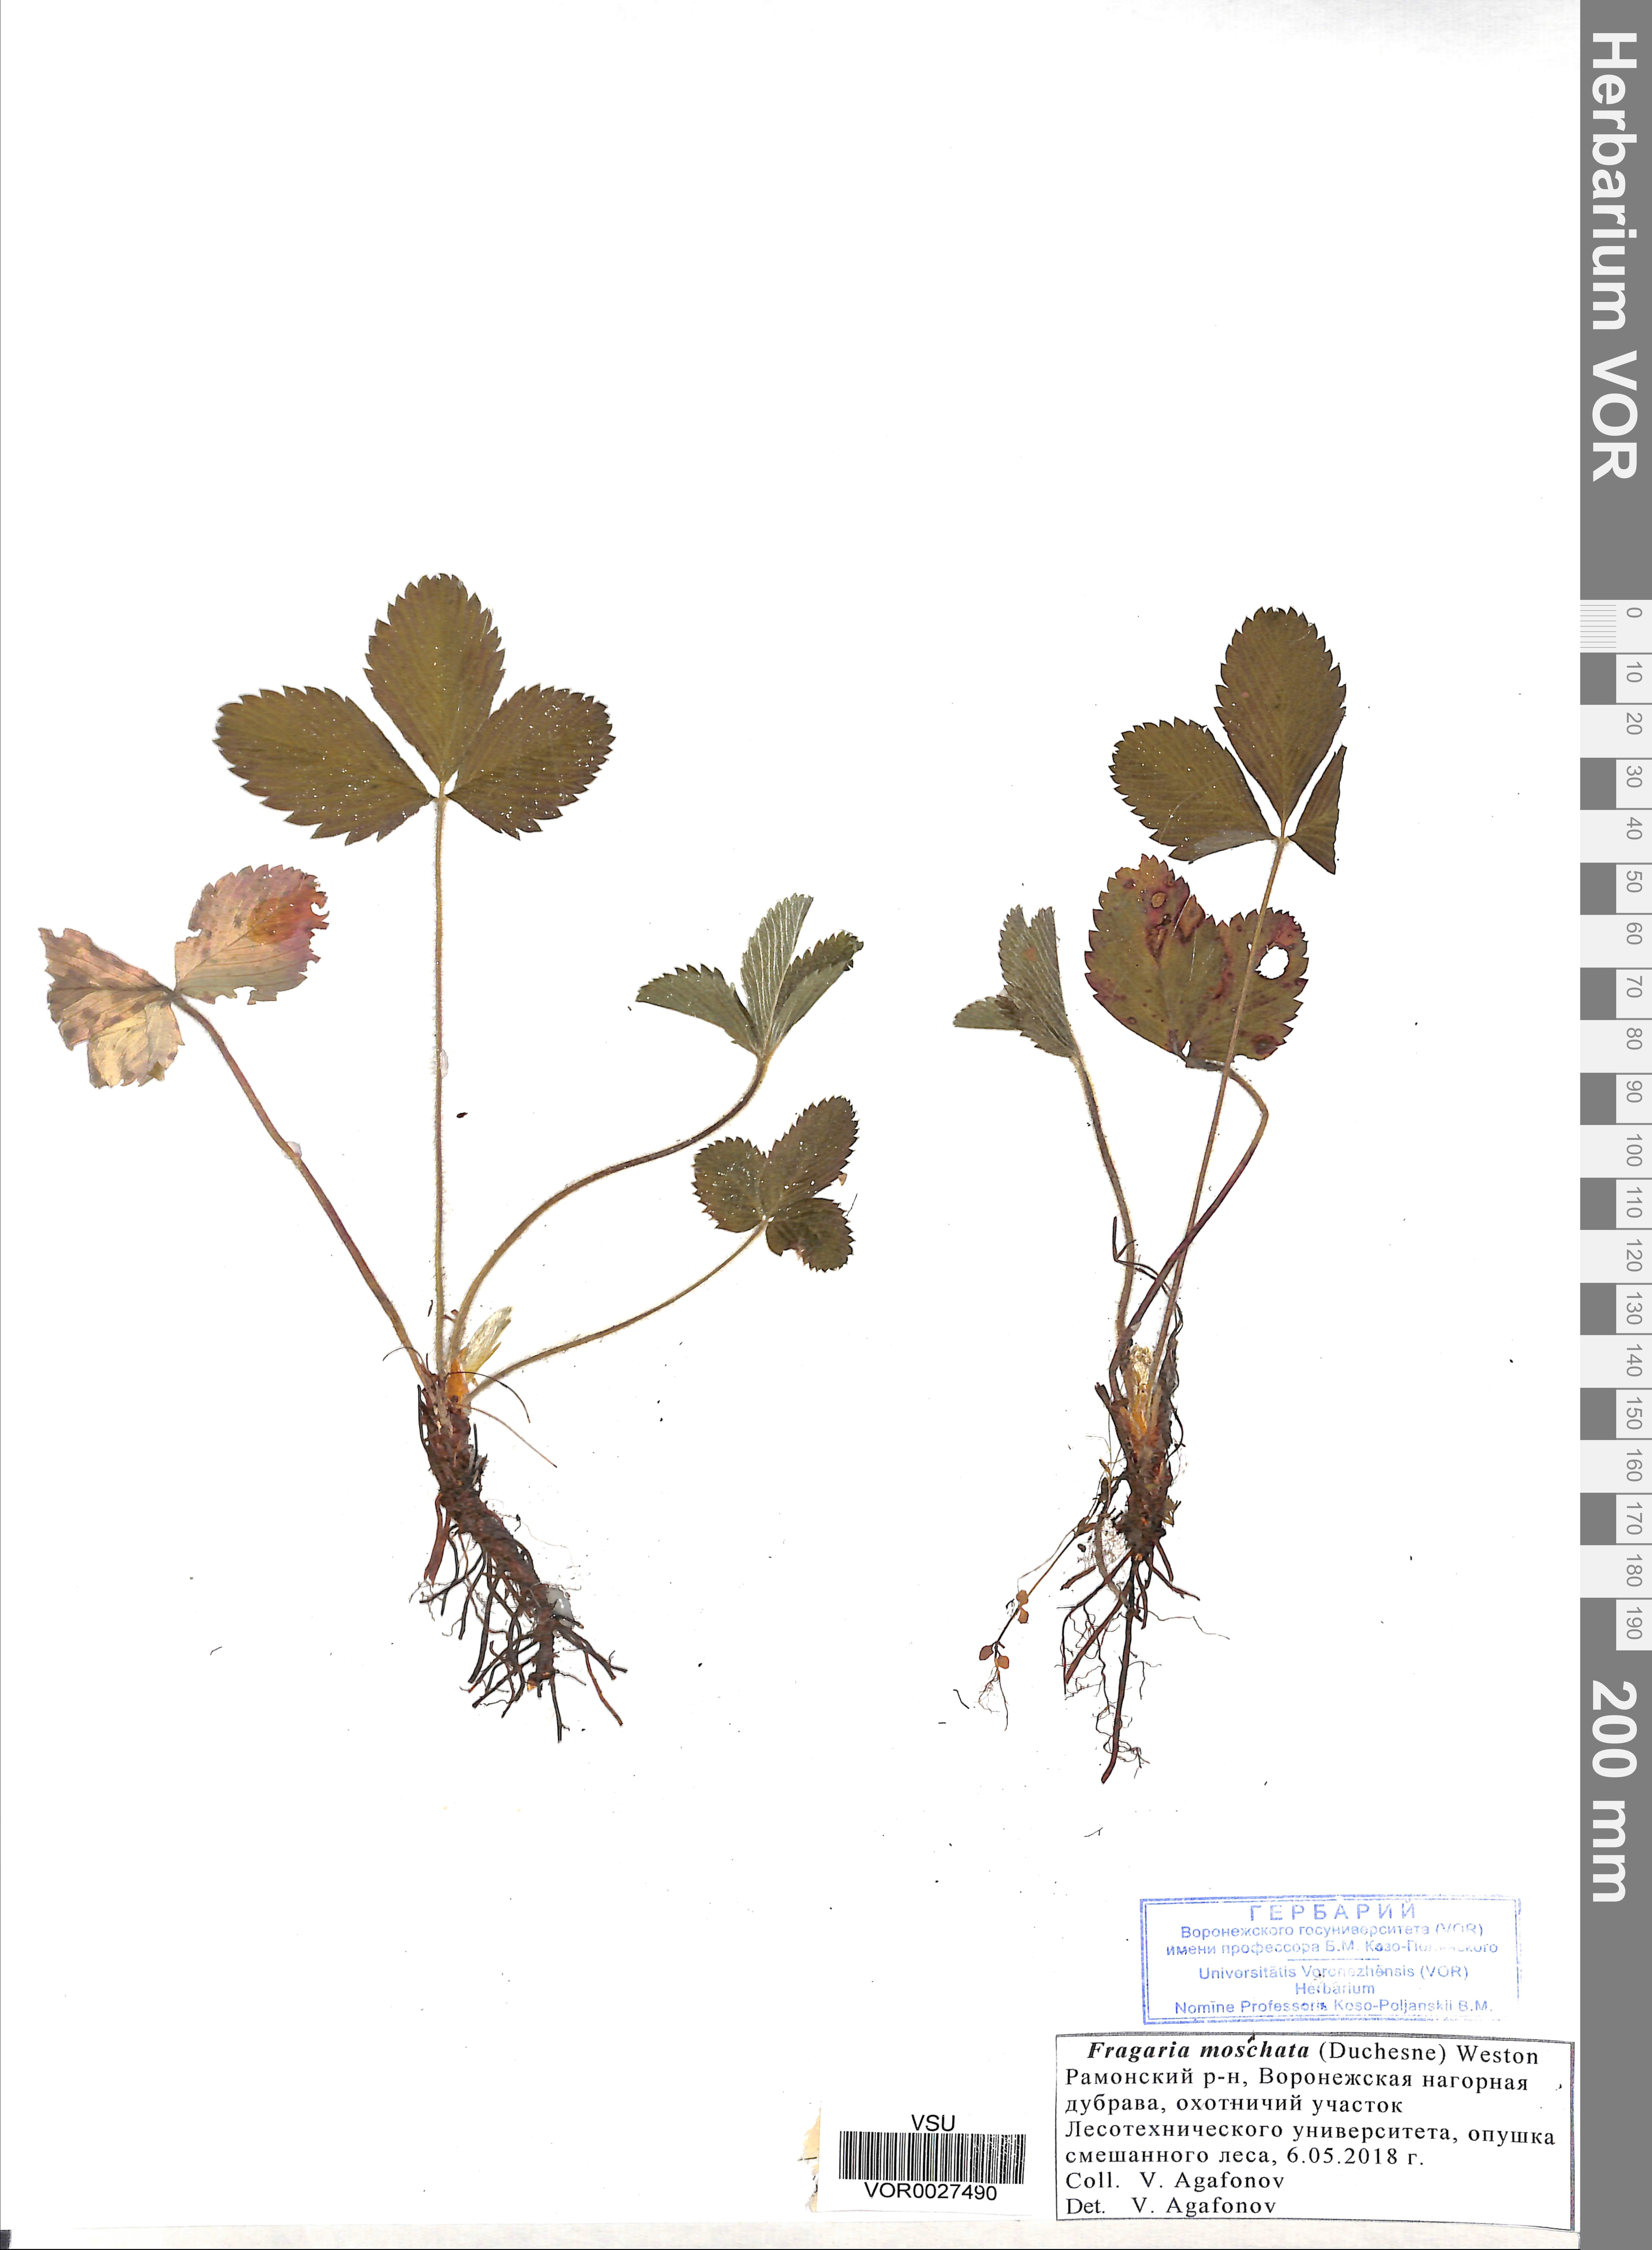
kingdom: Plantae
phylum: Tracheophyta
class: Magnoliopsida
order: Rosales
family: Rosaceae
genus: Fragaria
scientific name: Fragaria moschata
